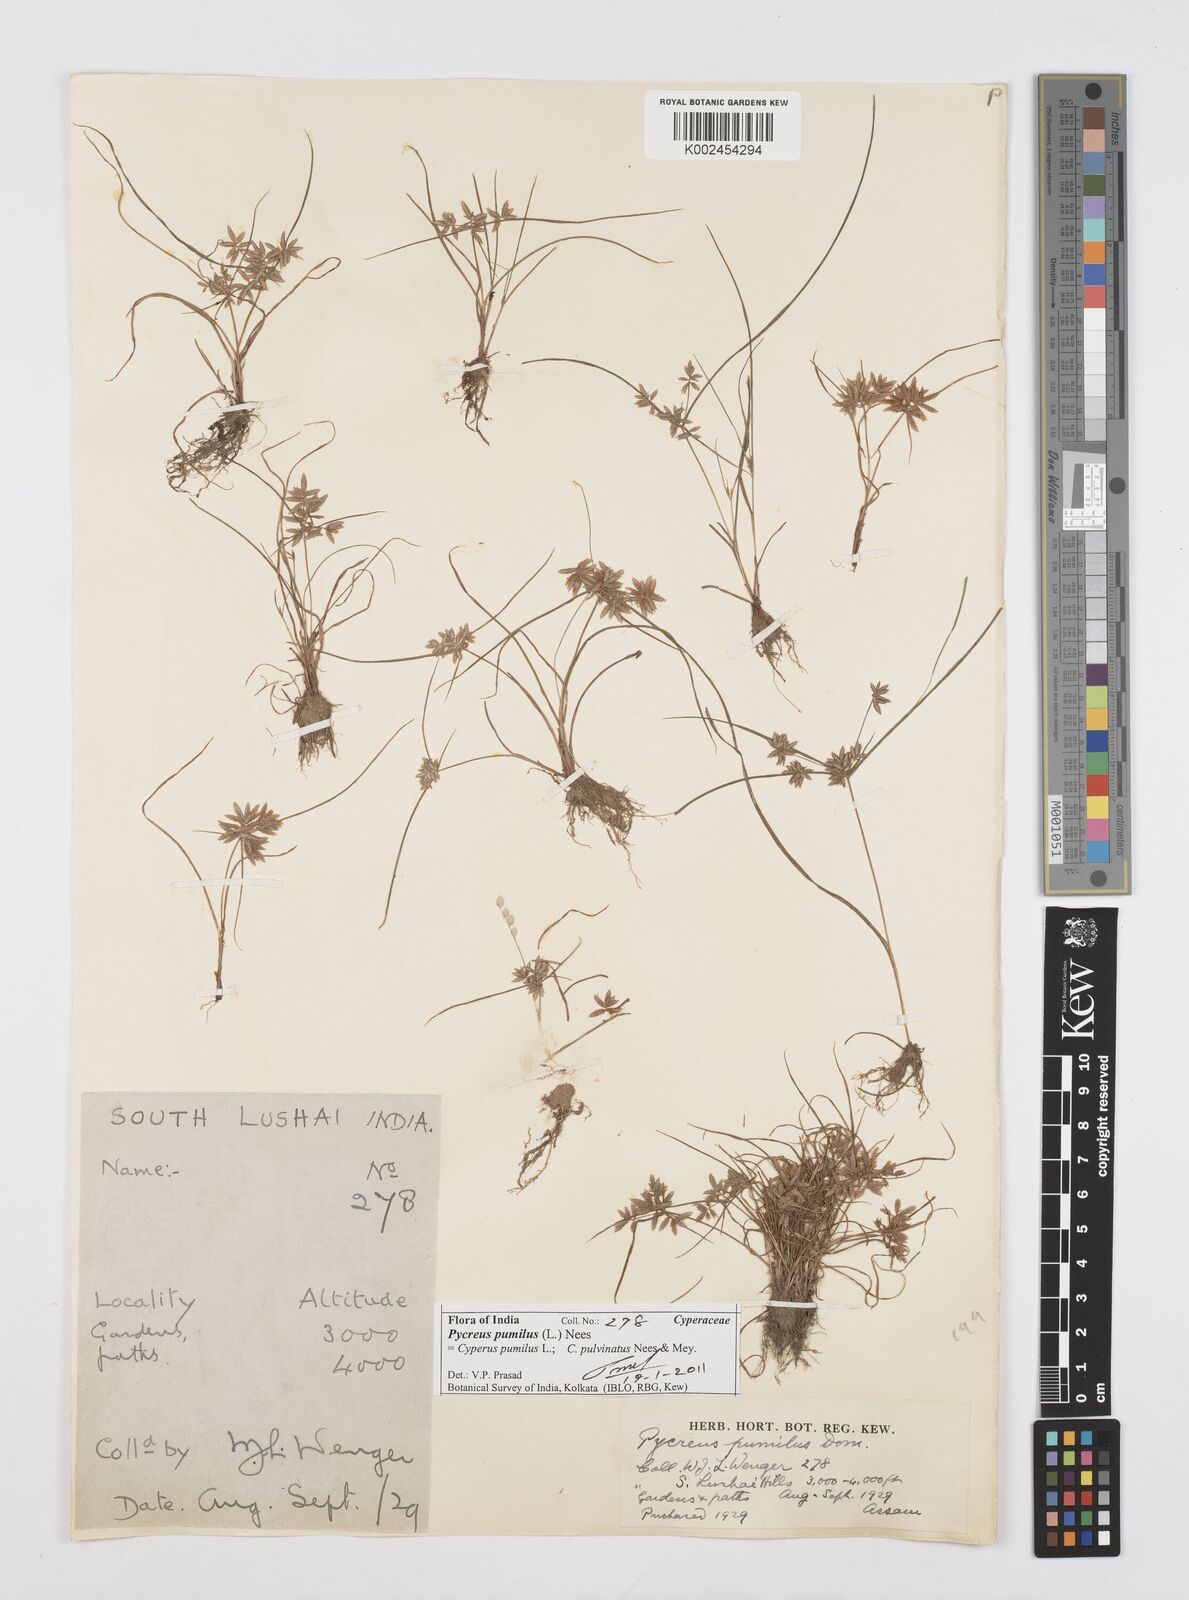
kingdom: Plantae
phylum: Tracheophyta
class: Liliopsida
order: Poales
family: Cyperaceae
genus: Cyperus
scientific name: Cyperus pumilus
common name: Low flatsedge
